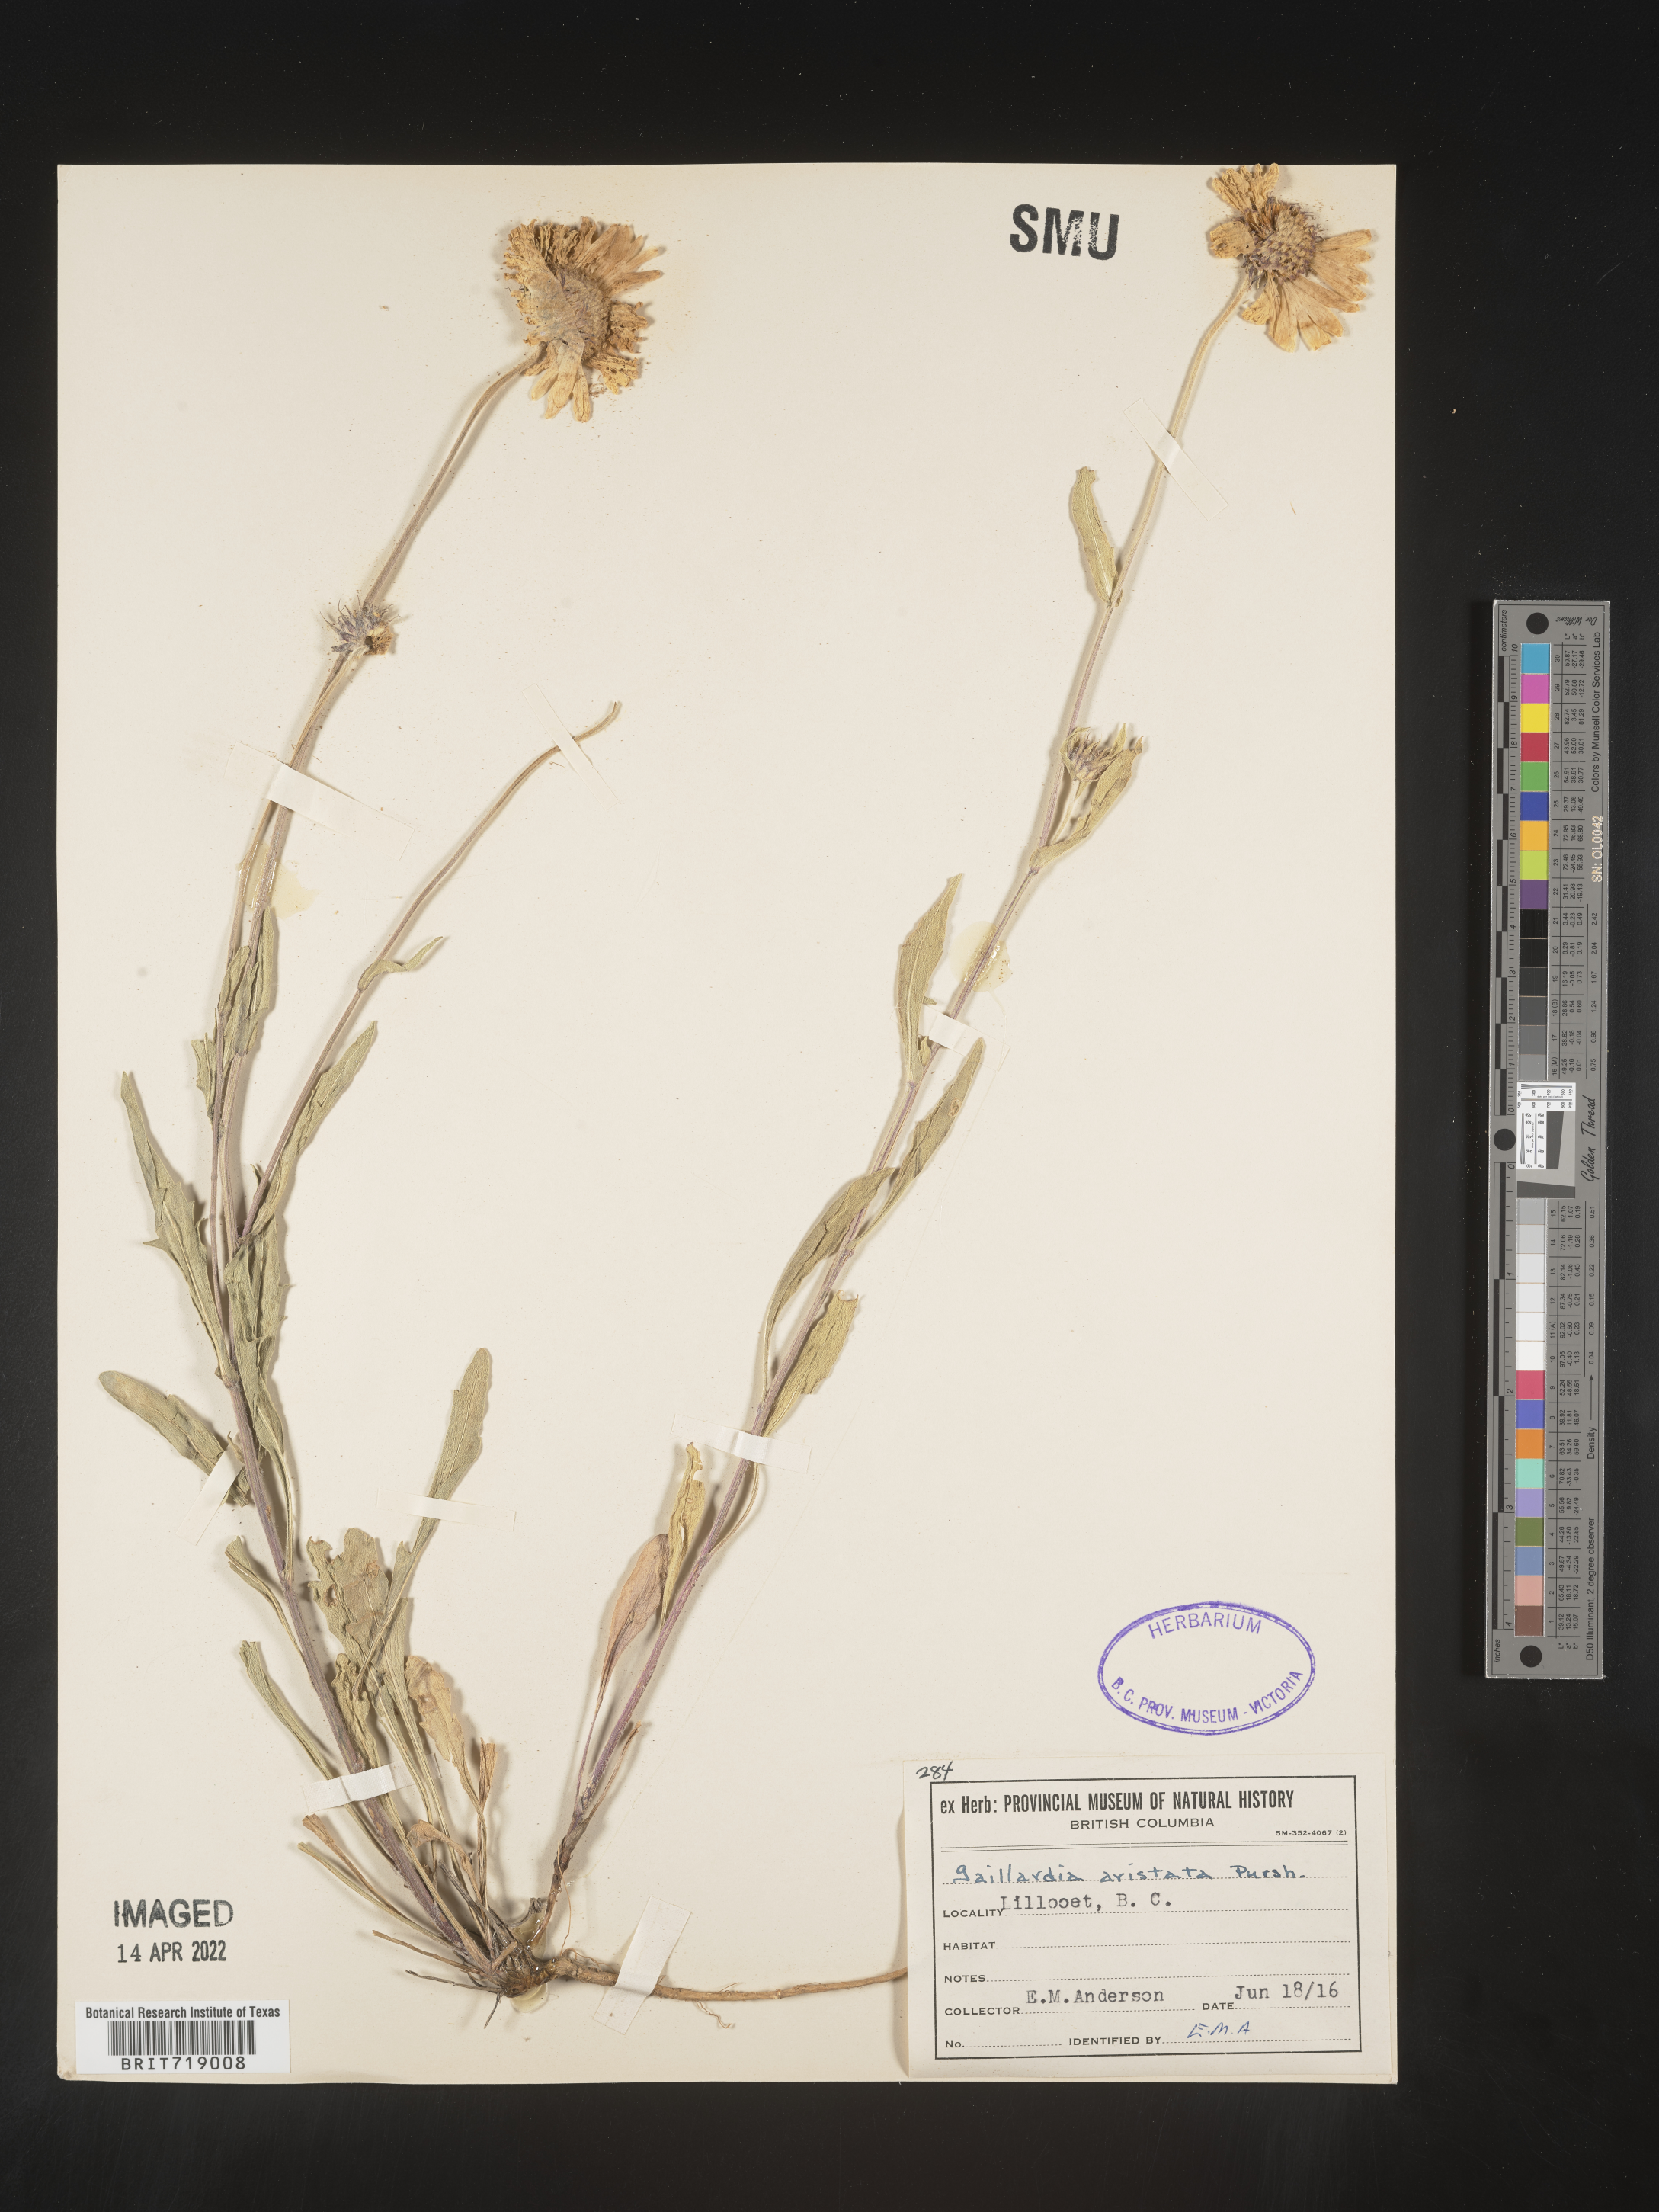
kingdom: Plantae
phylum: Tracheophyta
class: Magnoliopsida
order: Asterales
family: Asteraceae
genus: Gaillardia
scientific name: Gaillardia aristata
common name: Blanket-flower
